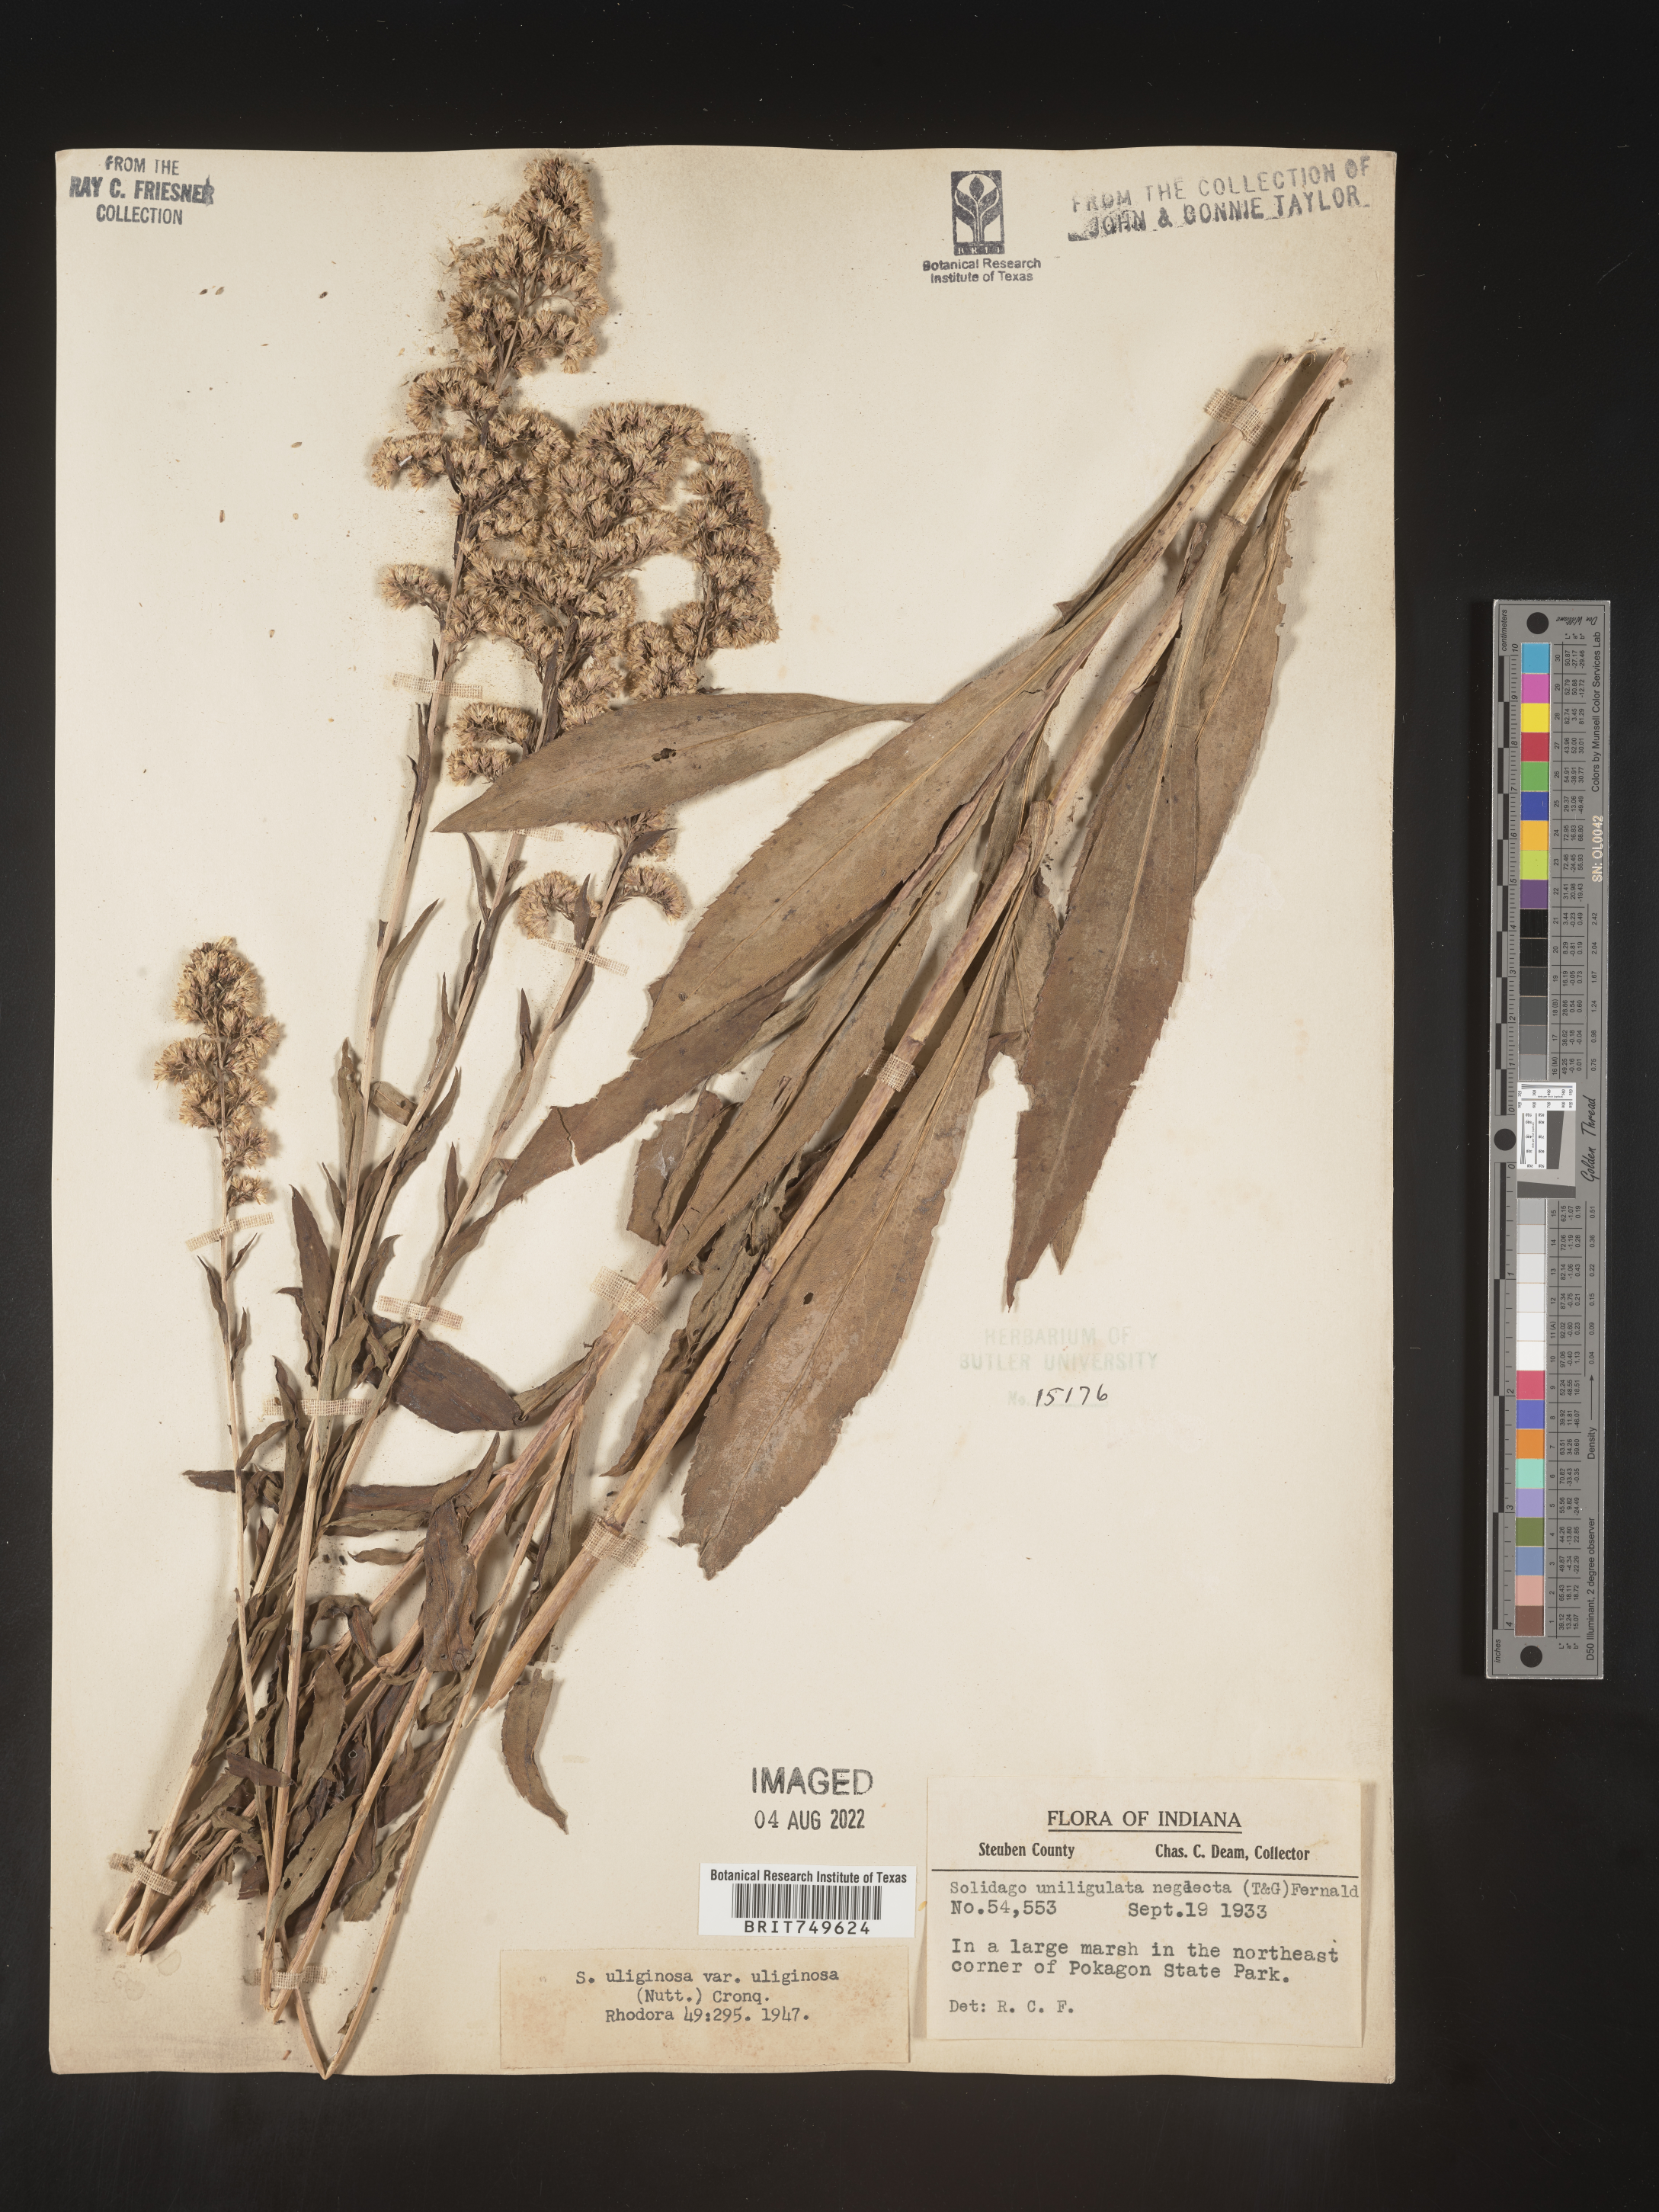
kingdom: Plantae
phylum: Tracheophyta
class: Magnoliopsida
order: Asterales
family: Asteraceae
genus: Solidago
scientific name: Solidago uliginosa
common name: Bog goldenrod
